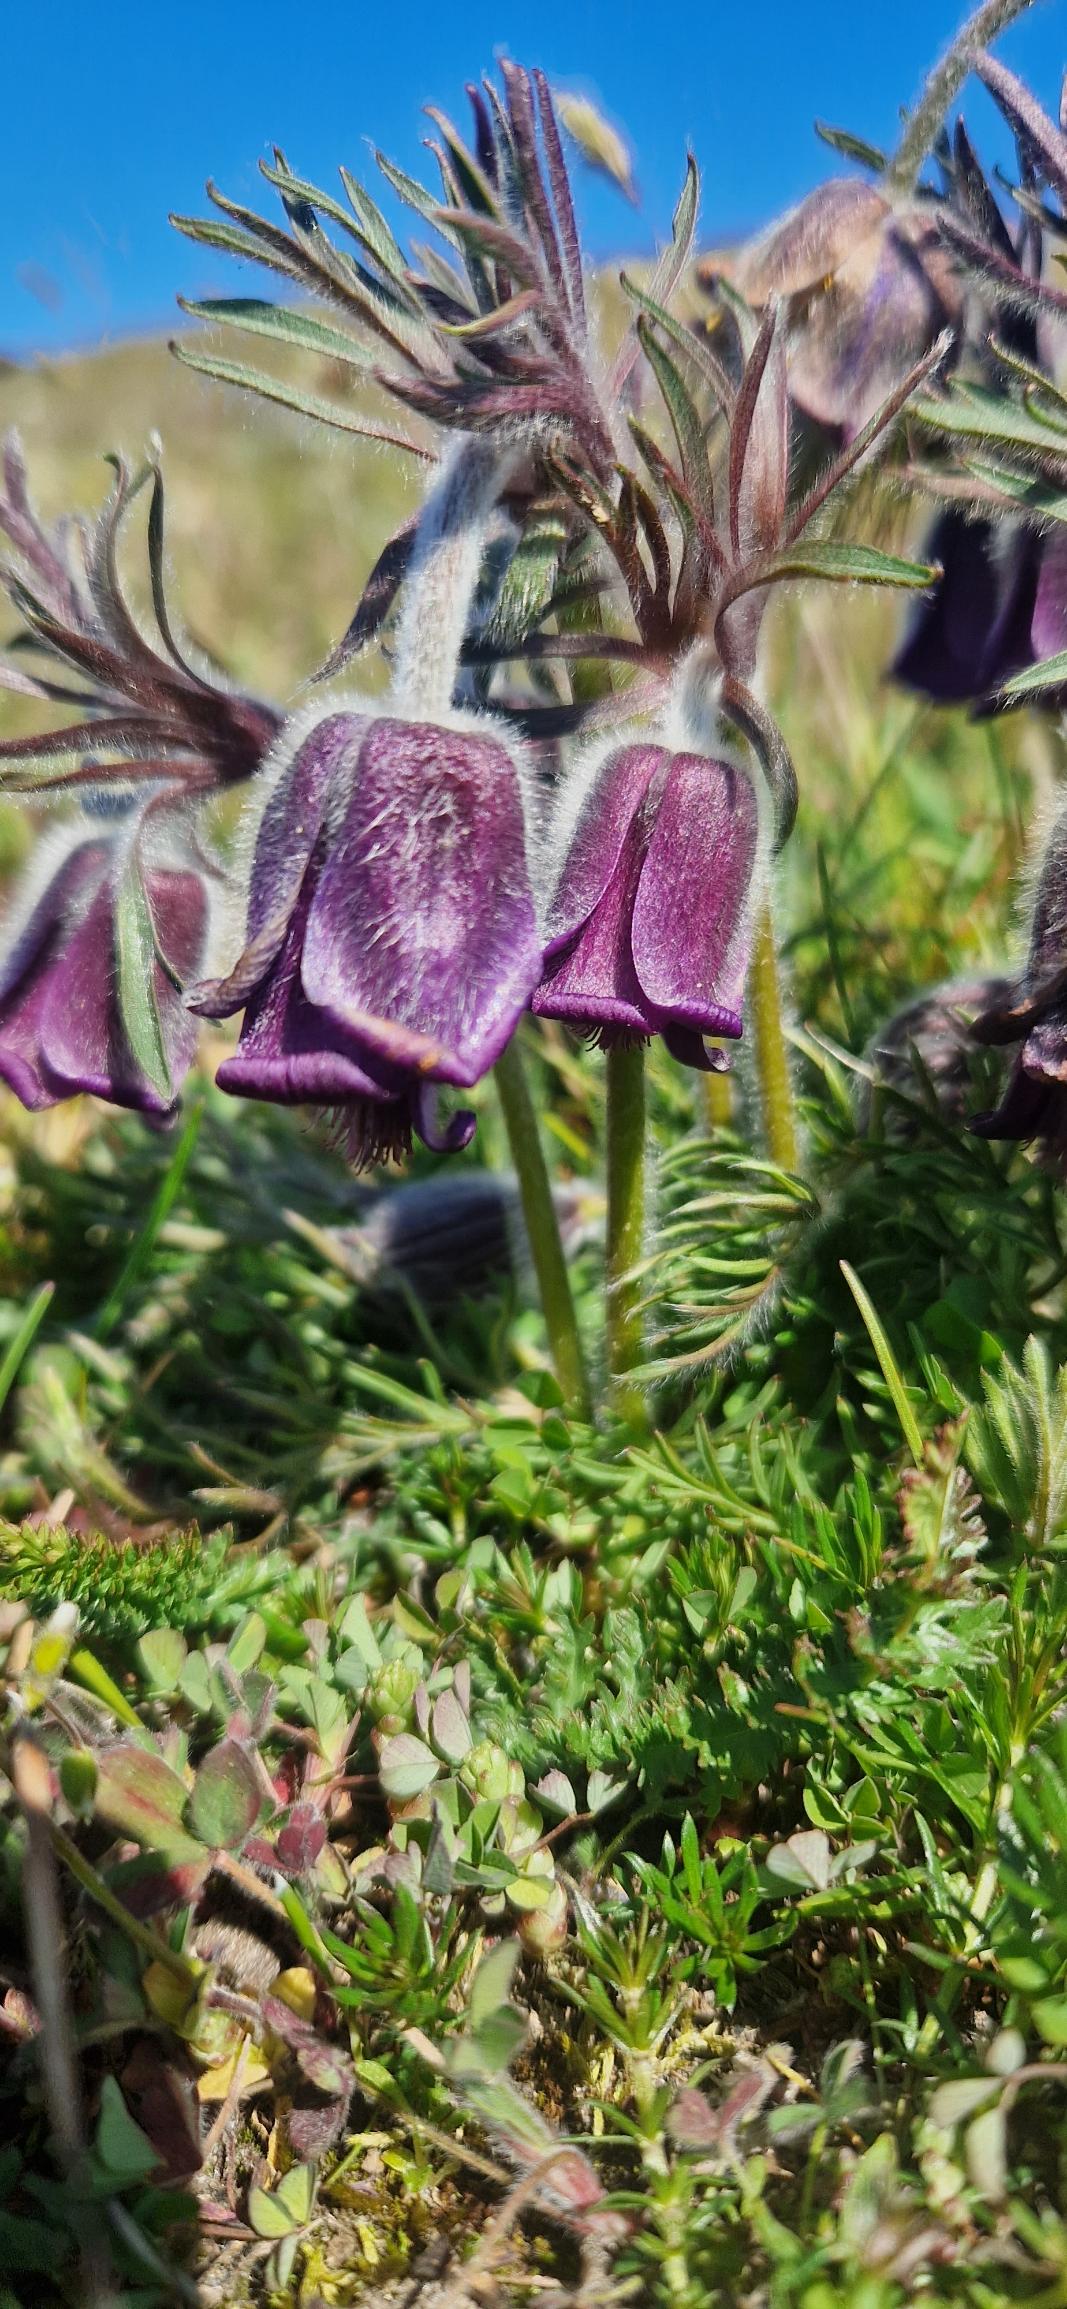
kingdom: Plantae
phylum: Tracheophyta
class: Magnoliopsida
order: Ranunculales
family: Ranunculaceae
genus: Pulsatilla
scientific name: Pulsatilla pratensis
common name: Nikkende kobjælde
